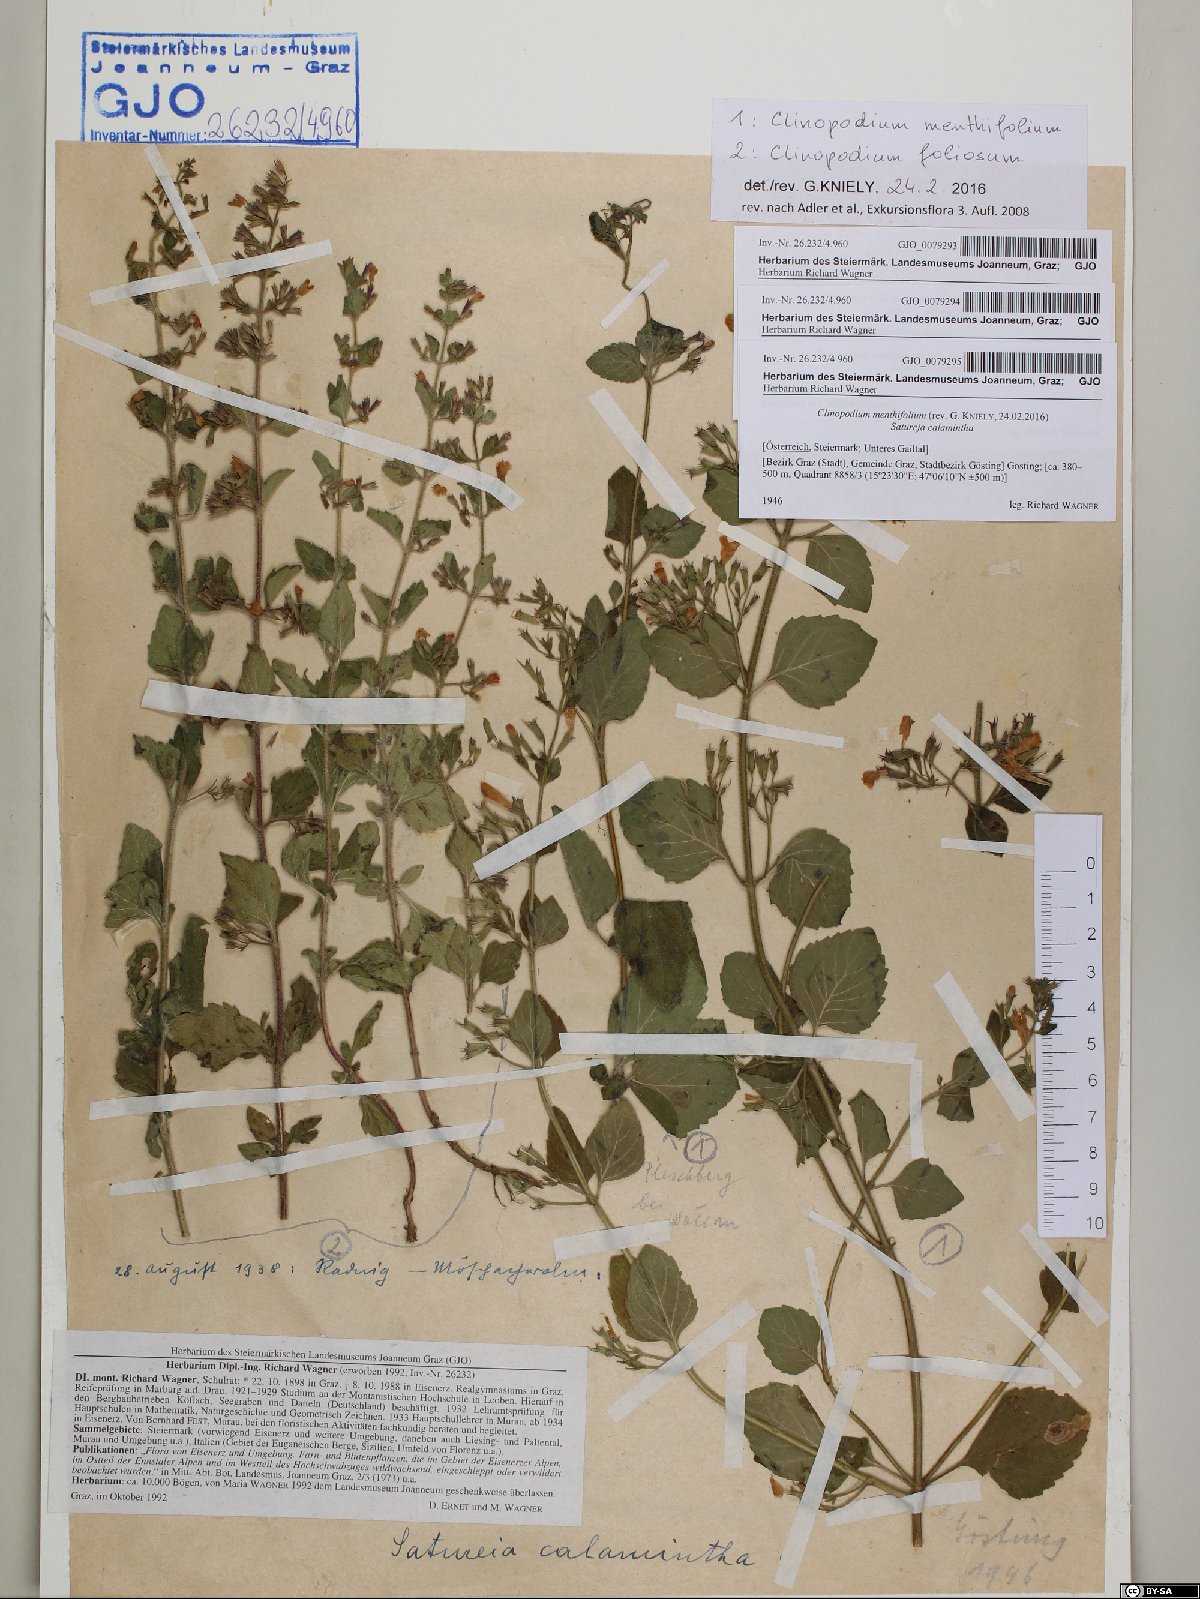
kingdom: Plantae
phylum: Tracheophyta
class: Magnoliopsida
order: Lamiales
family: Lamiaceae
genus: Clinopodium
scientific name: Clinopodium foliolosum
